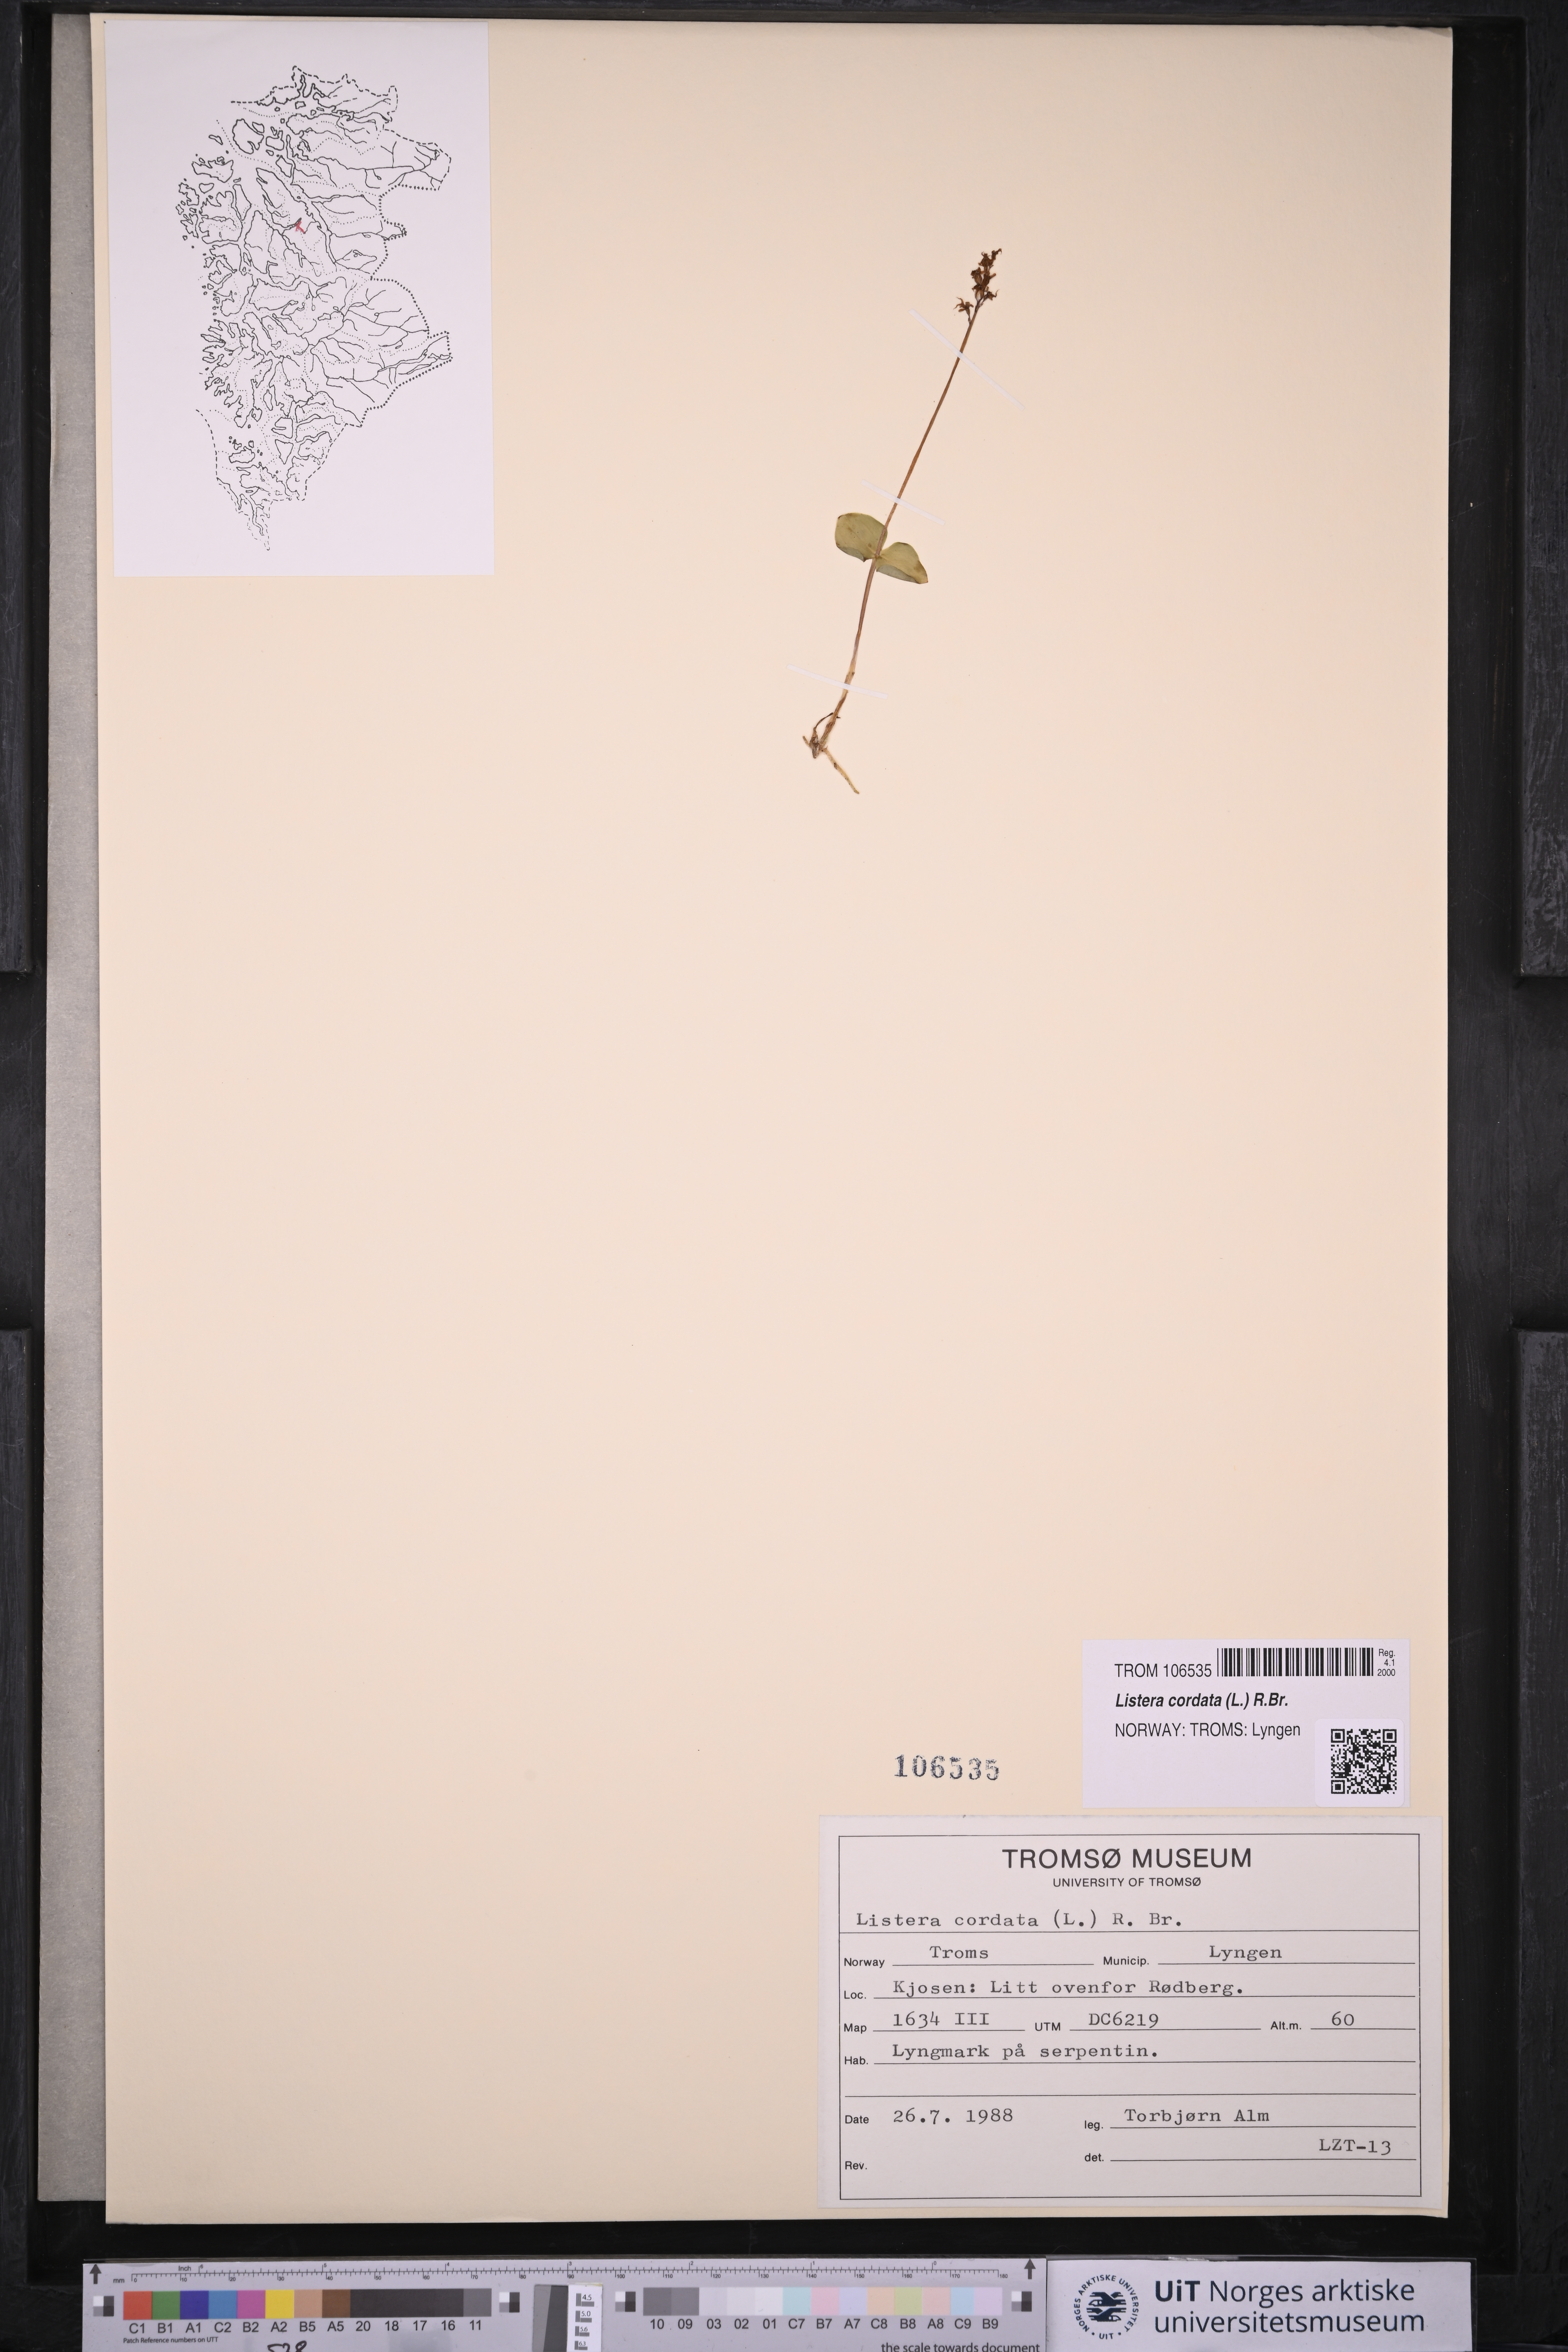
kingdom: Plantae
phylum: Tracheophyta
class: Liliopsida
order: Asparagales
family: Orchidaceae
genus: Neottia
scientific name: Neottia cordata
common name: Lesser twayblade
